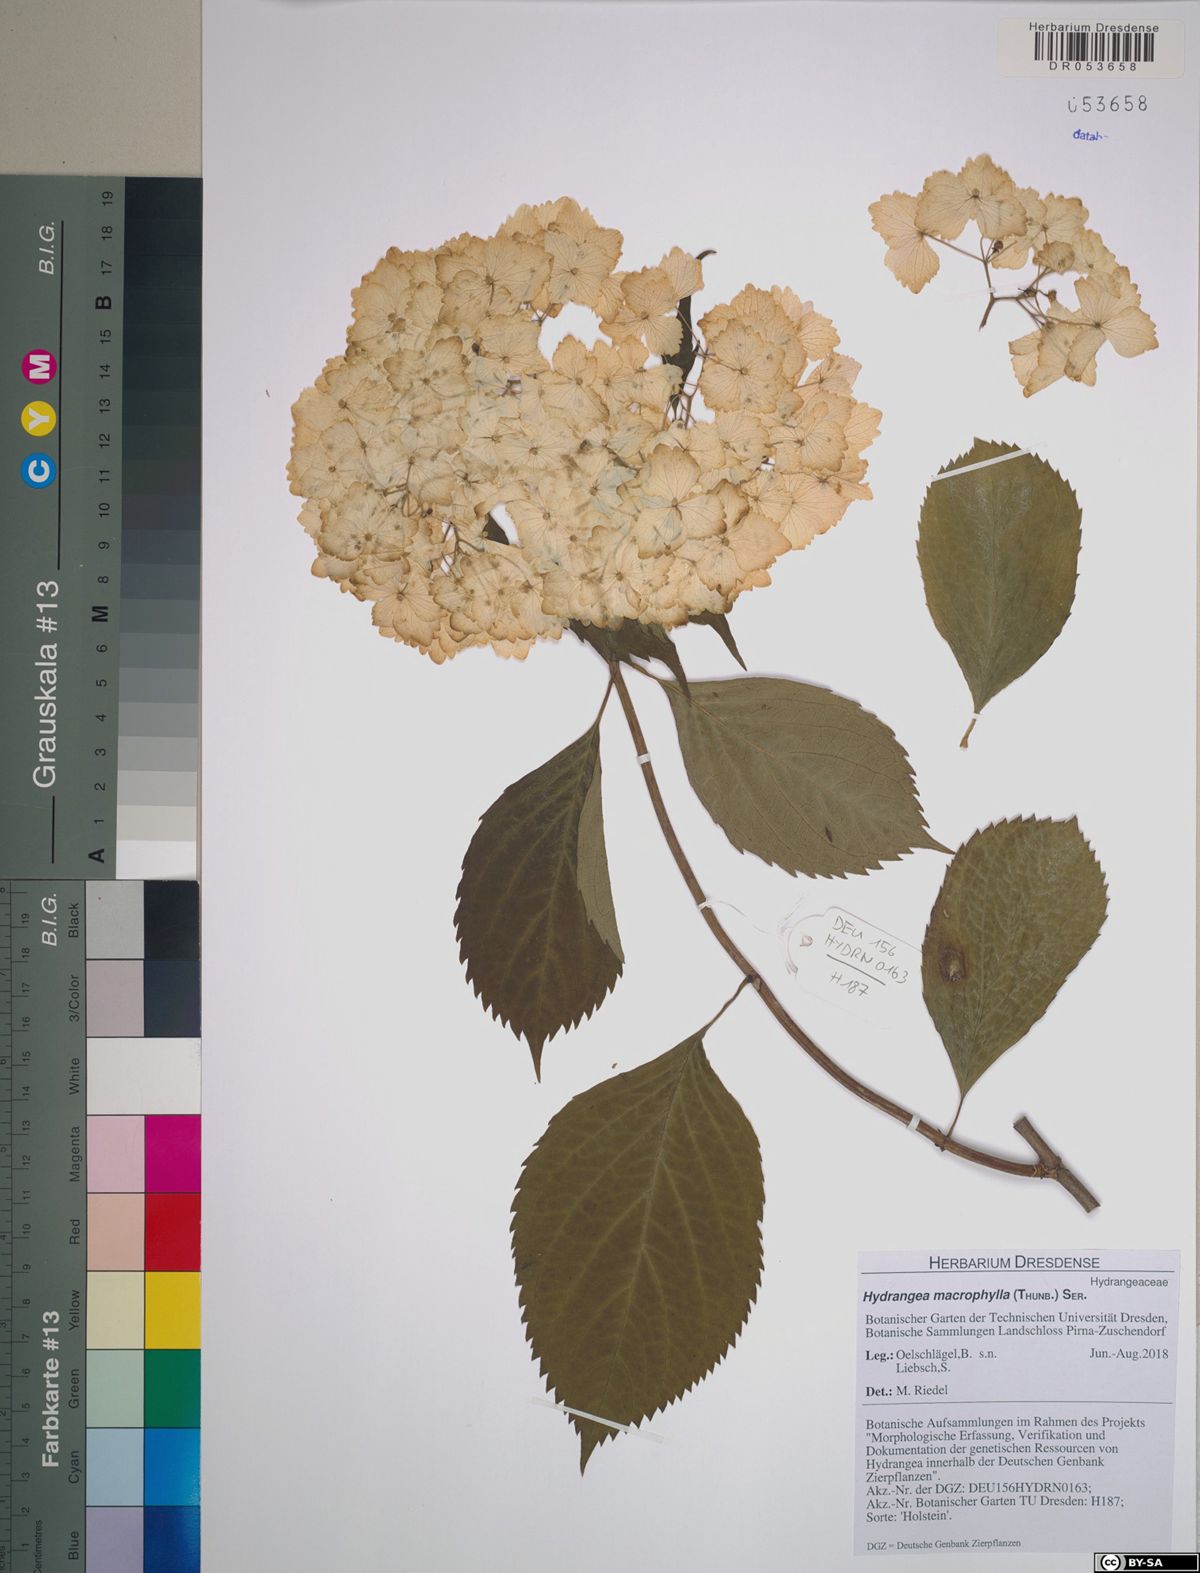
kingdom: Plantae
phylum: Tracheophyta
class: Magnoliopsida
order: Cornales
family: Hydrangeaceae
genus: Hydrangea
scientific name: Hydrangea macrophylla
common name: Hydrangea
